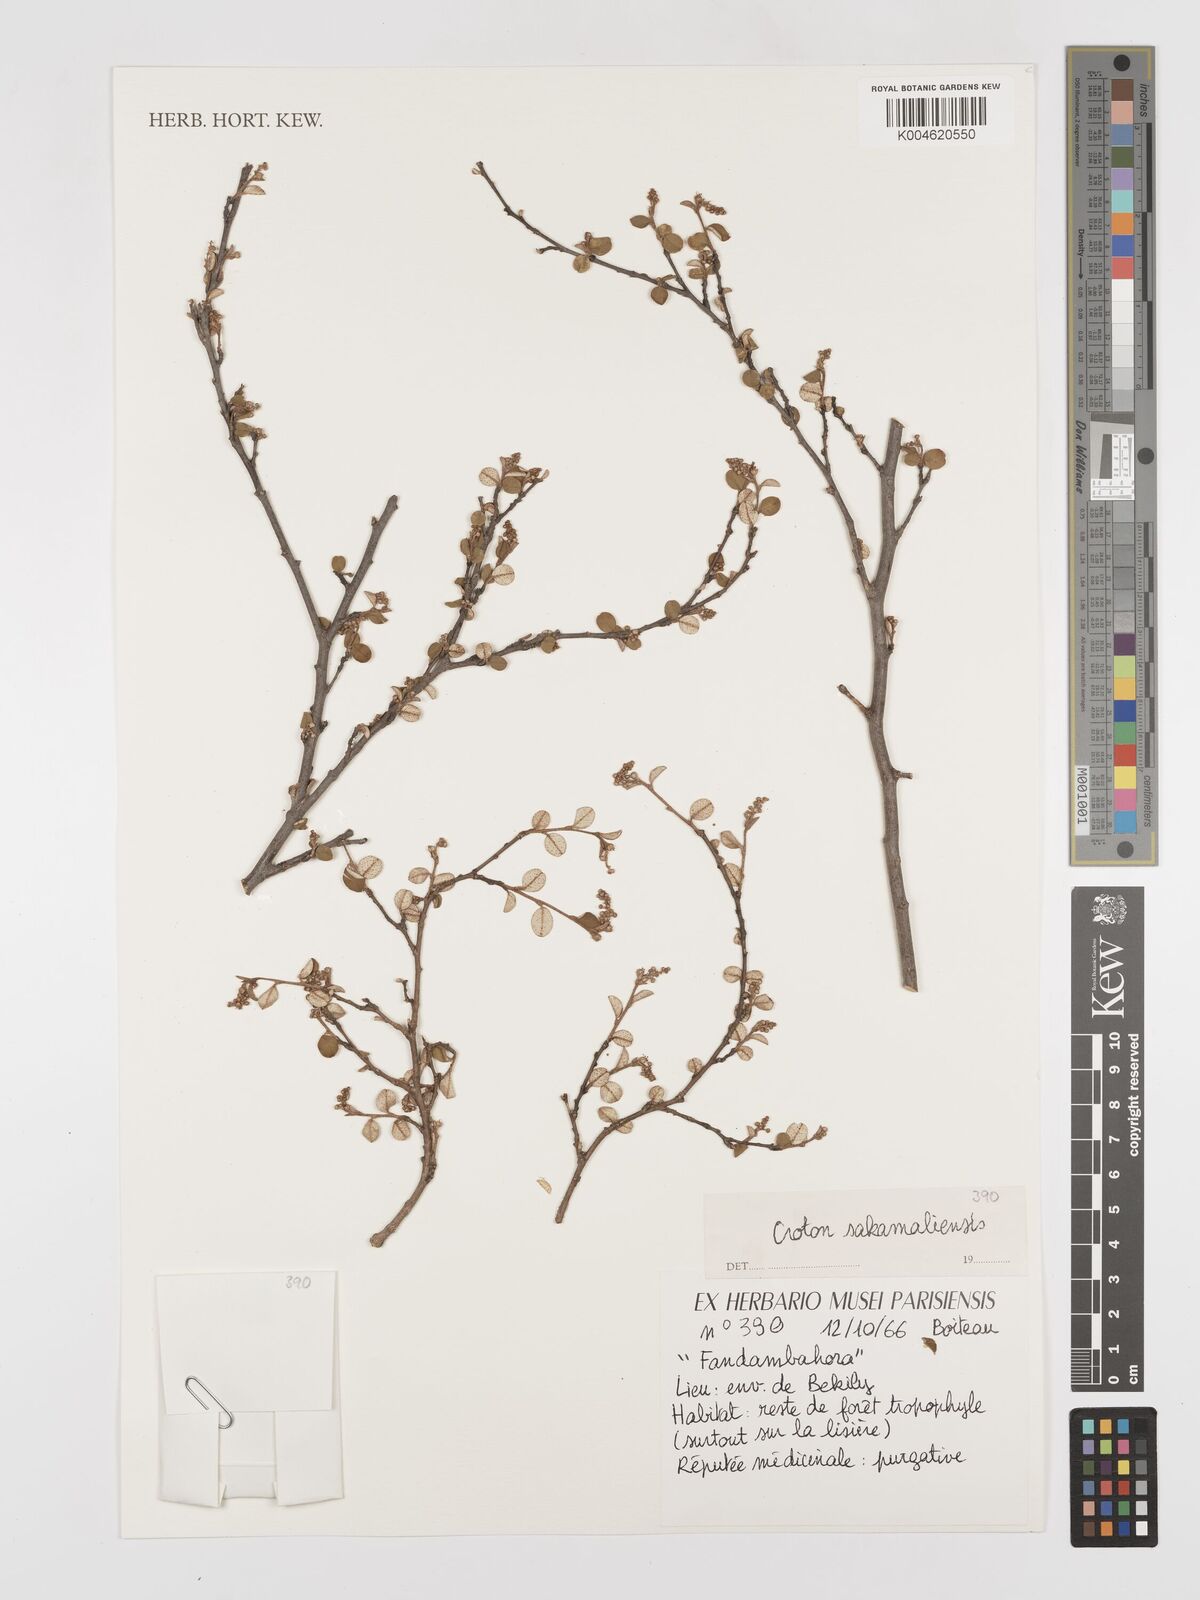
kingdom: Plantae
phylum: Tracheophyta
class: Magnoliopsida
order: Malpighiales
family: Euphorbiaceae
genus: Croton
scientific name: Croton sakamaliensis
